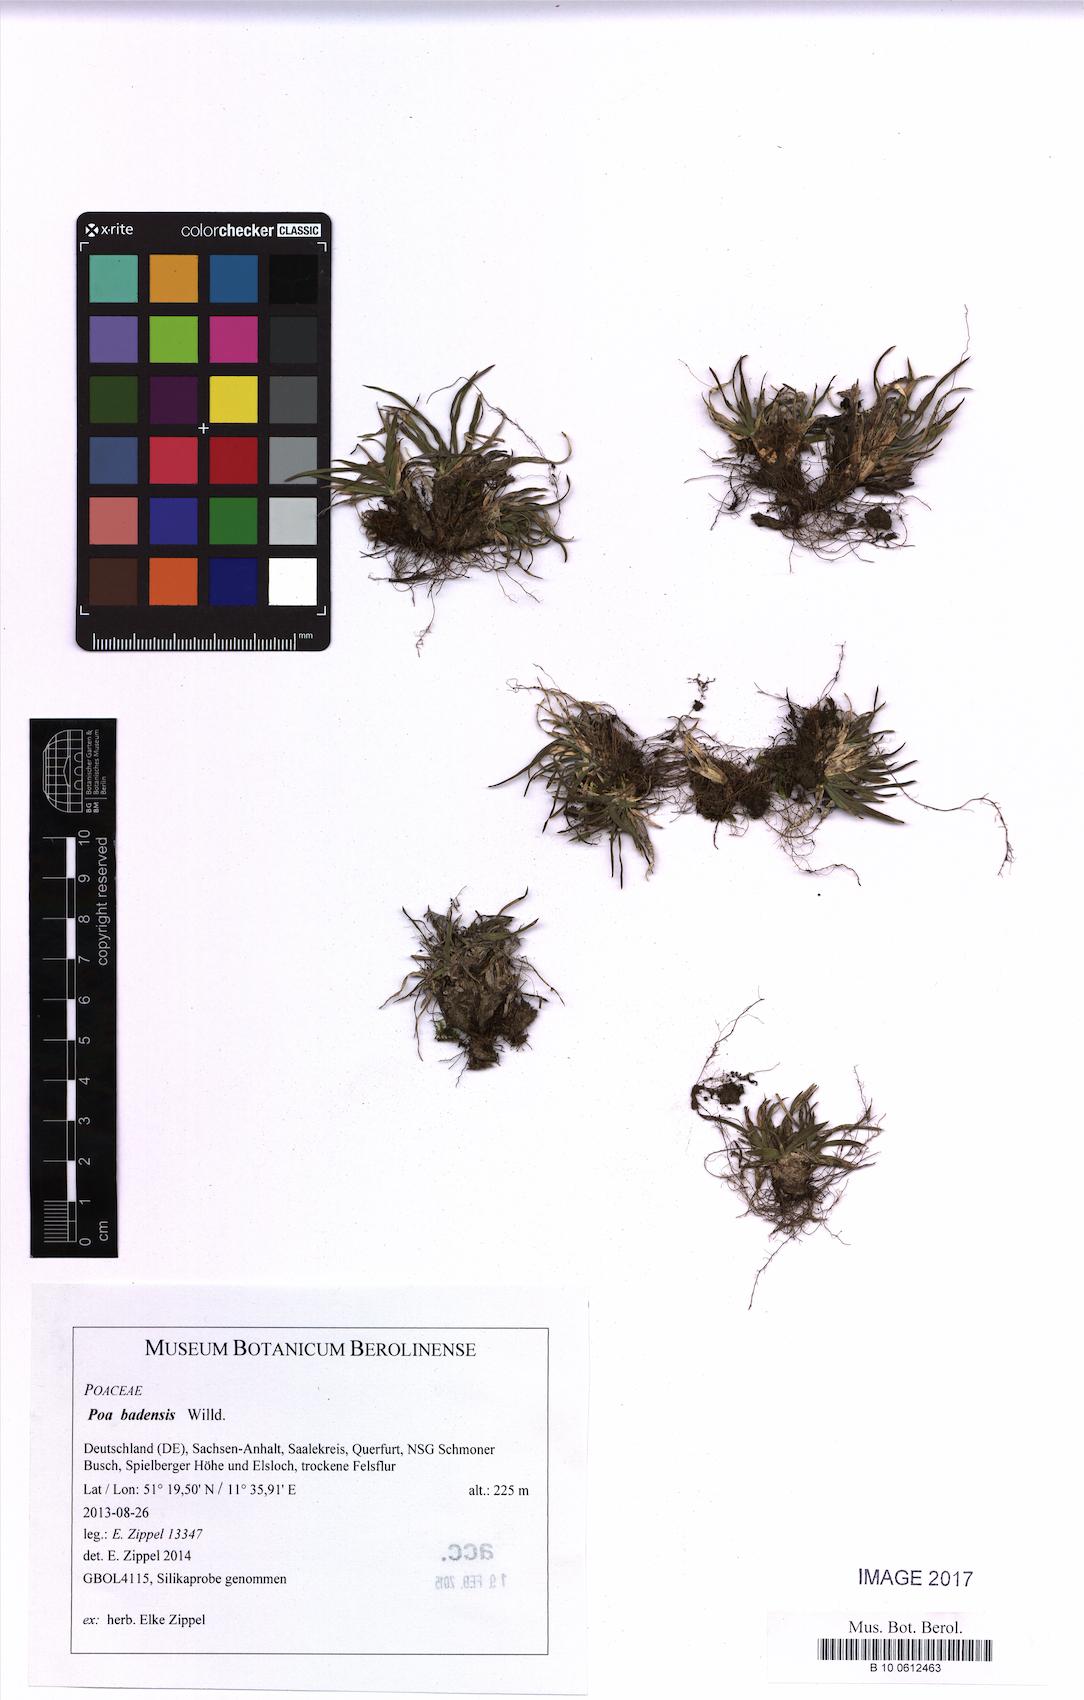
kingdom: Plantae
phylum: Tracheophyta
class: Liliopsida
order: Poales
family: Poaceae
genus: Poa
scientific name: Poa badensis
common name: Baden's bluegrass
